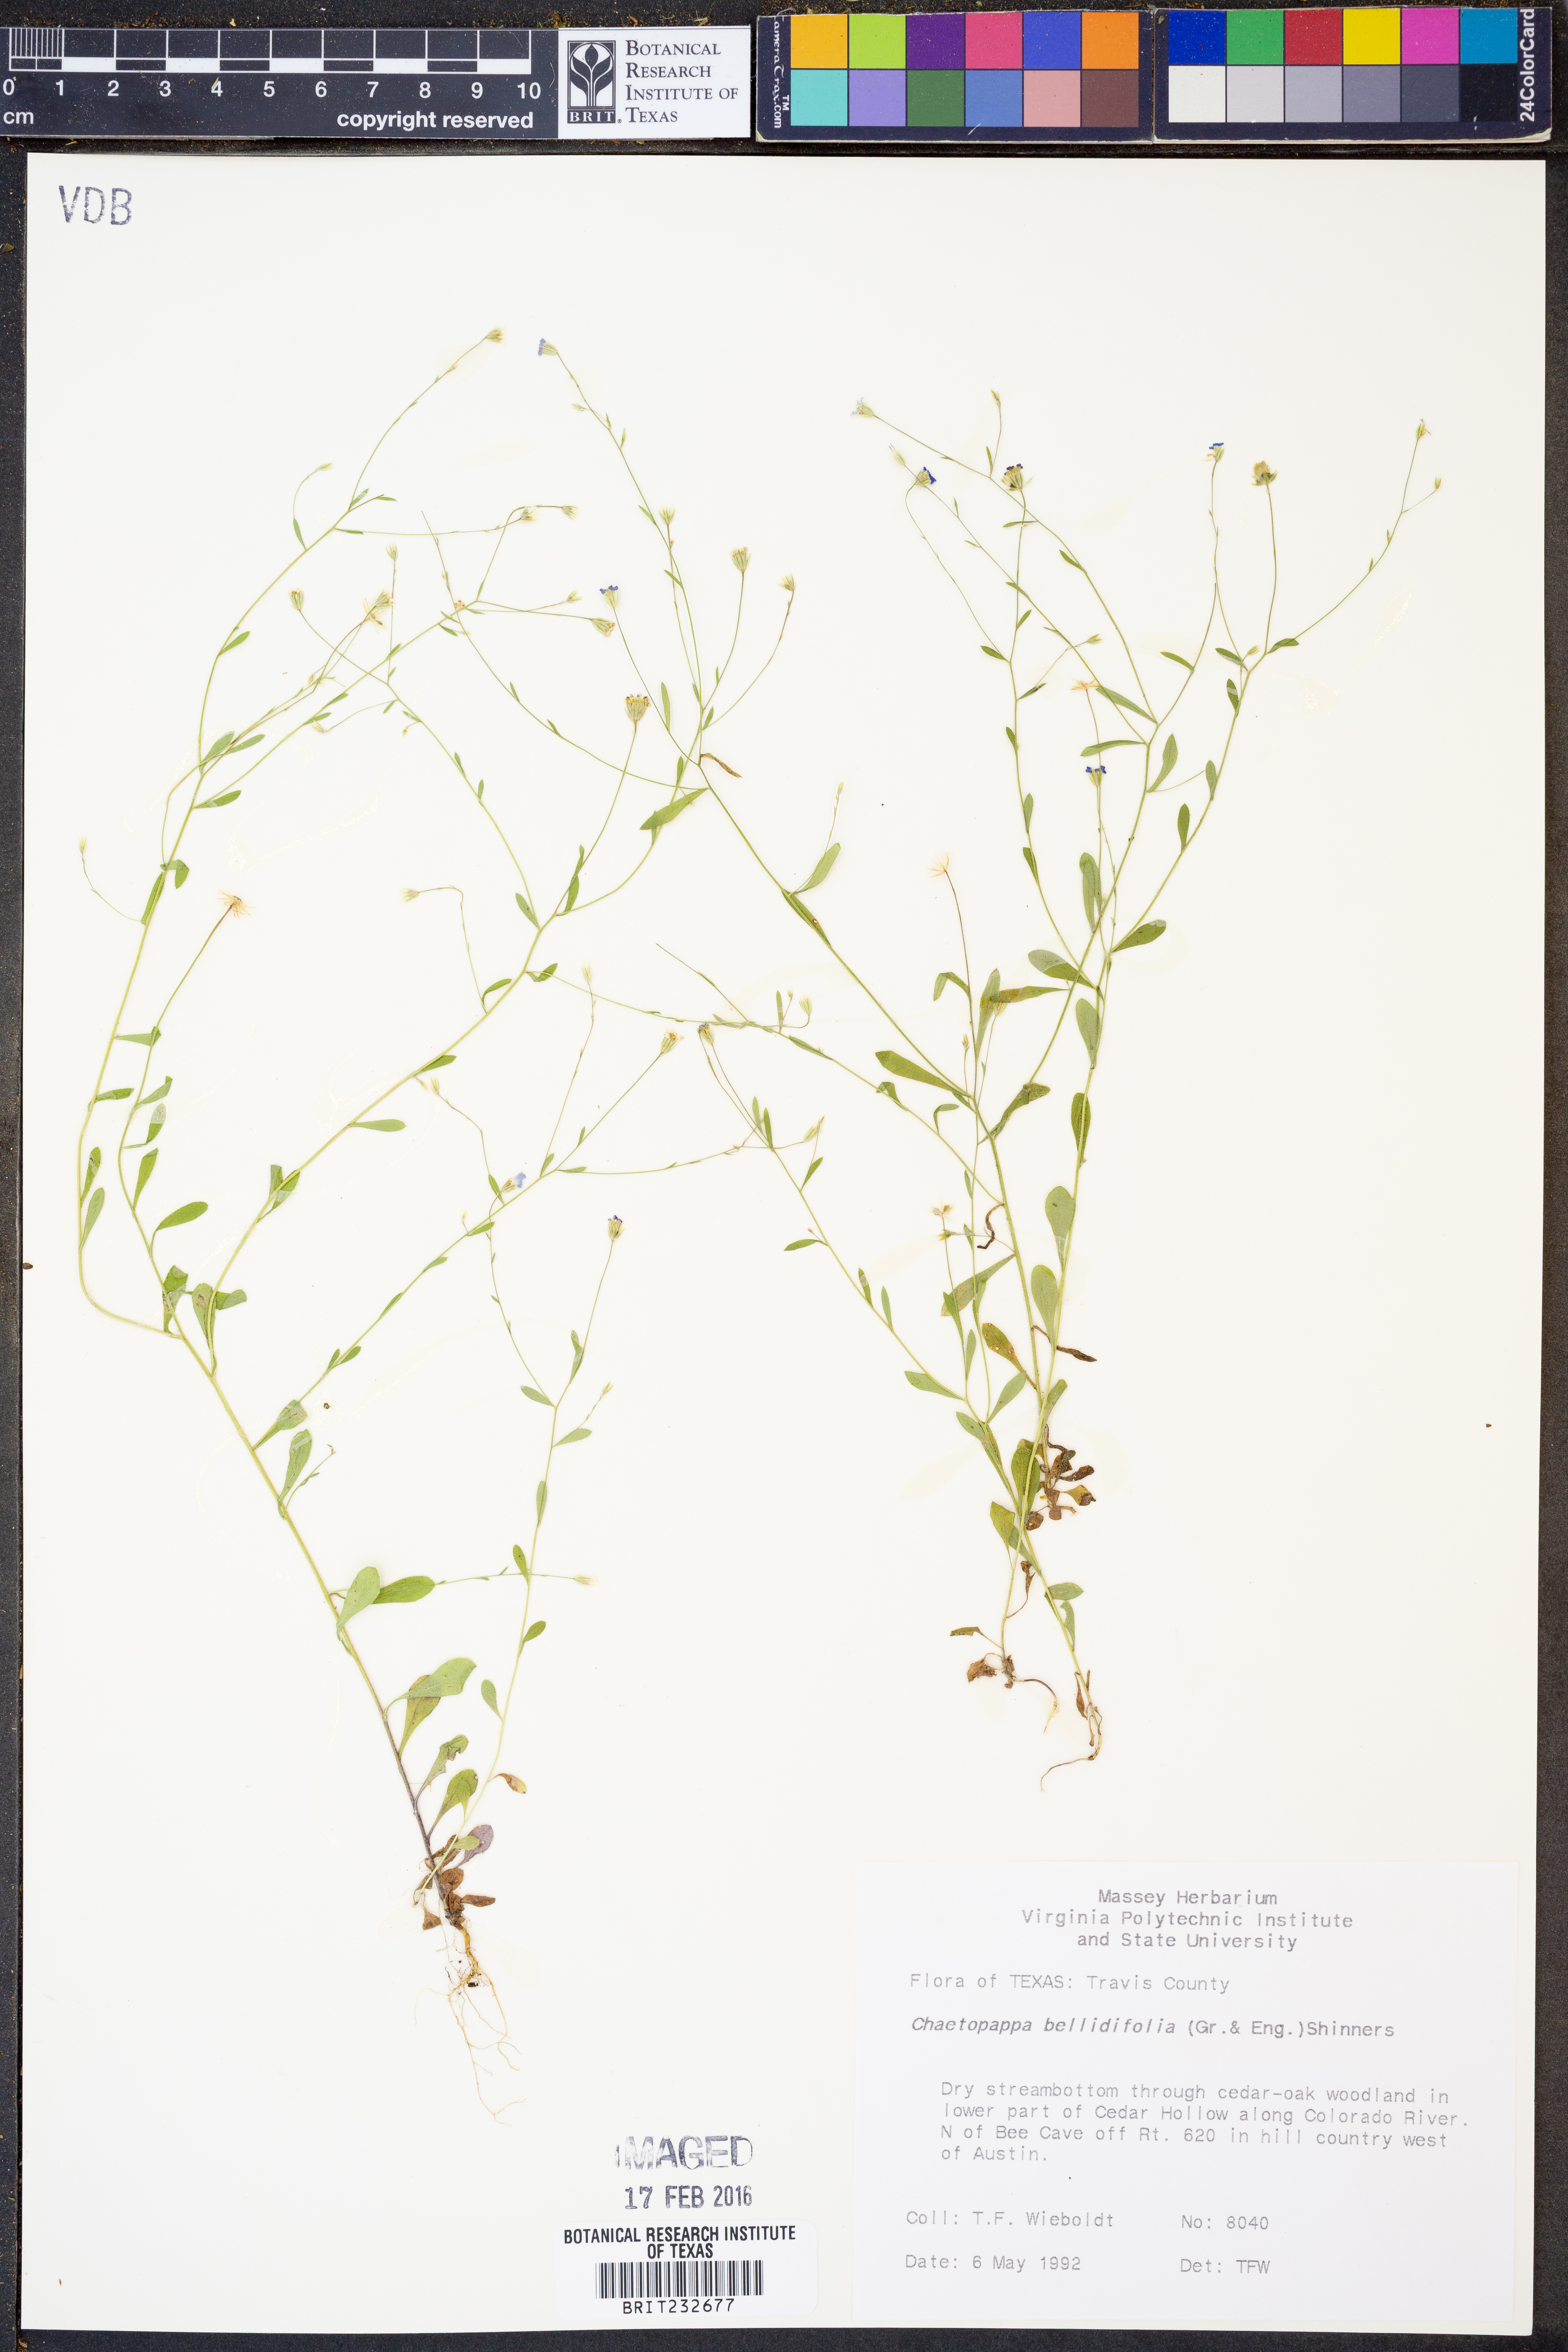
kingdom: Plantae
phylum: Tracheophyta
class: Magnoliopsida
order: Asterales
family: Asteraceae
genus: Chaetopappa
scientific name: Chaetopappa bellidifolia
